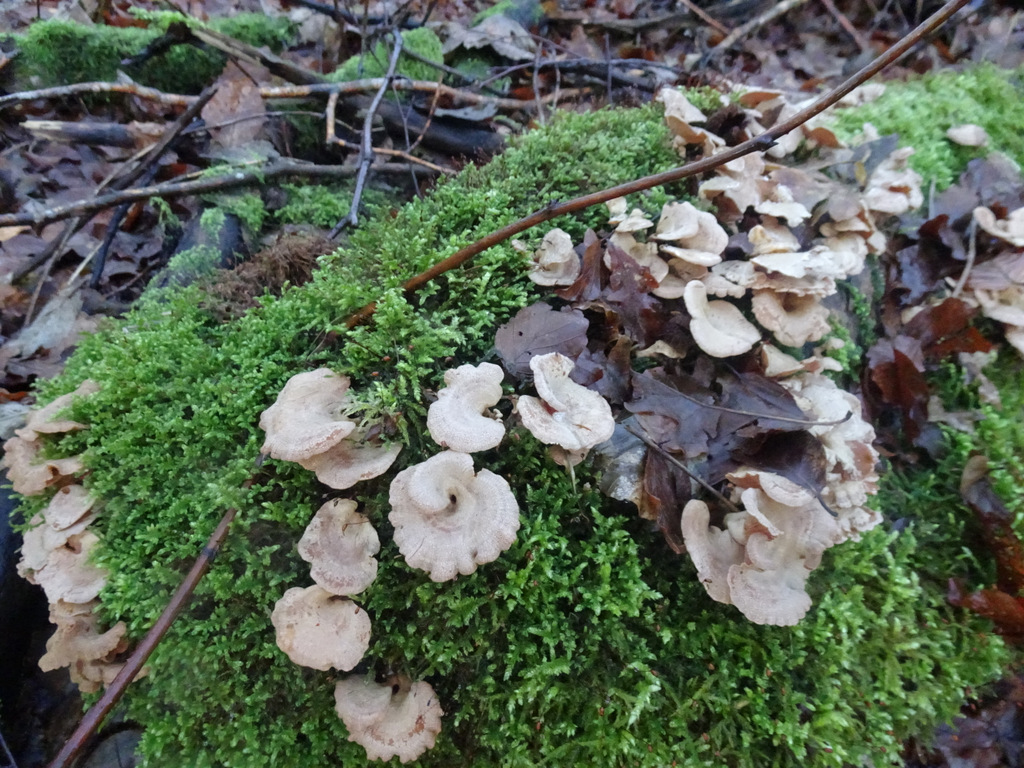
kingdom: Fungi
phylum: Basidiomycota
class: Agaricomycetes
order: Agaricales
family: Mycenaceae
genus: Panellus
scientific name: Panellus stipticus
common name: kliddet epaulethat
